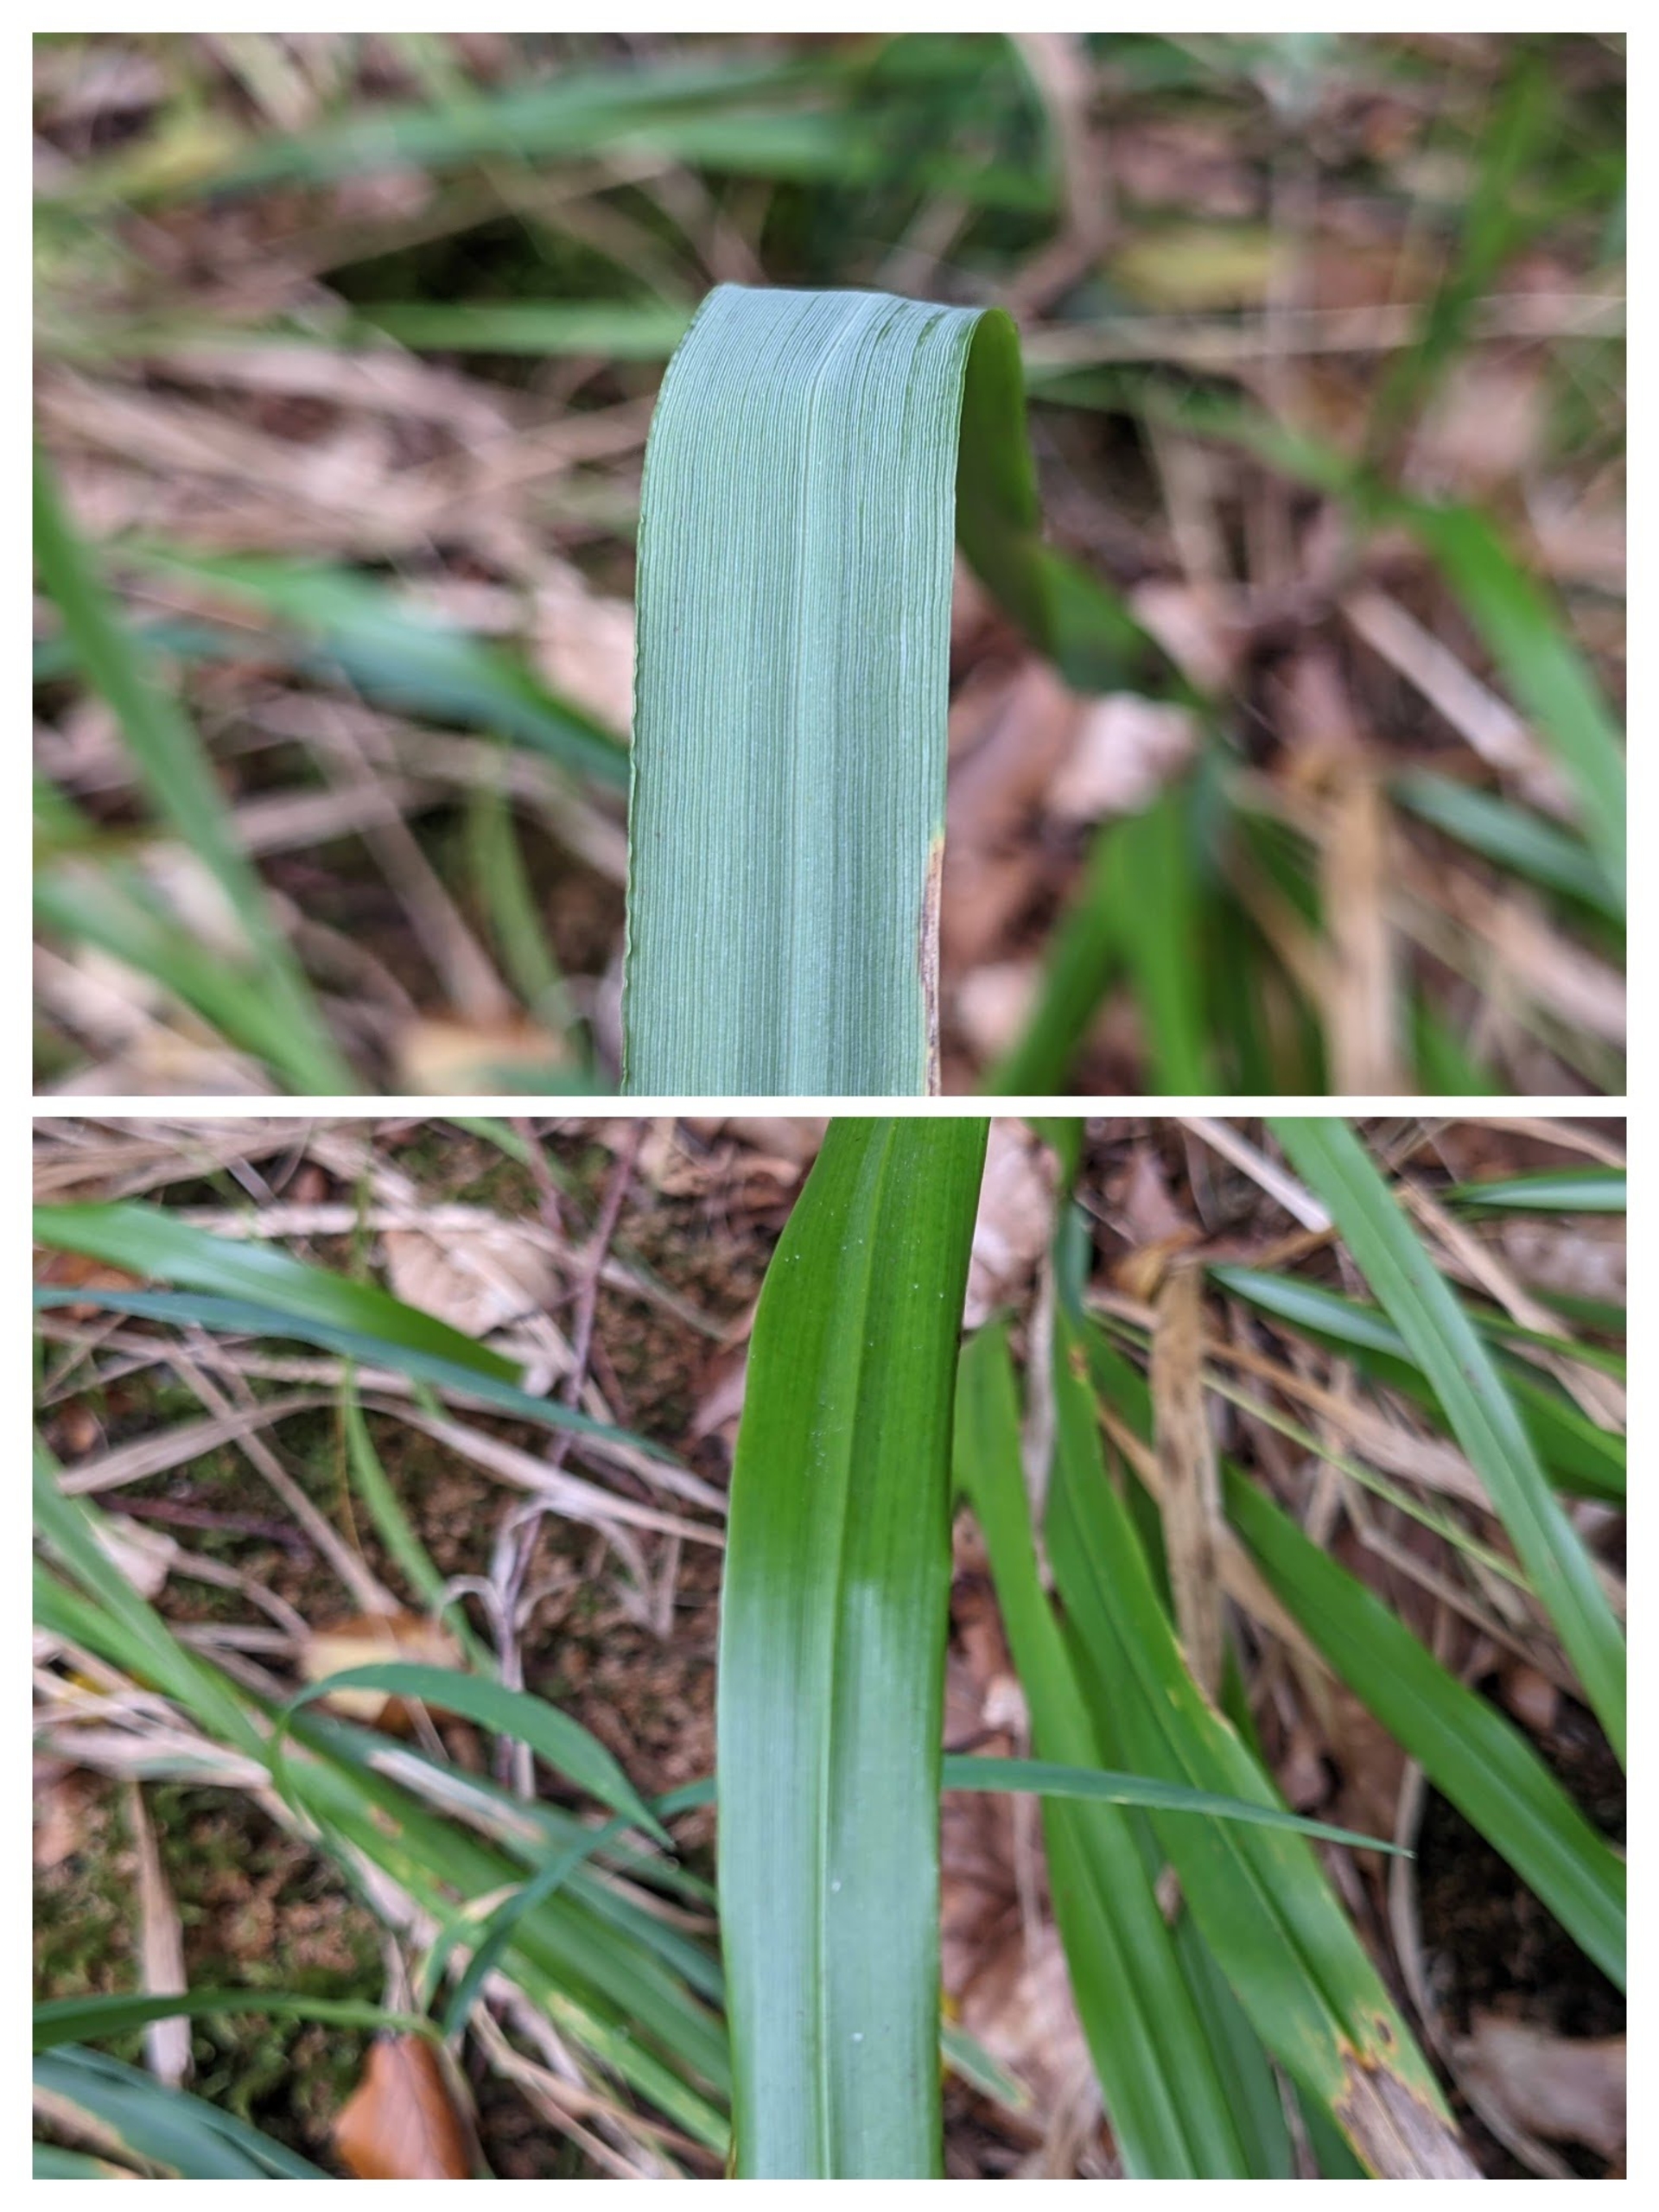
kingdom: Plantae
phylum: Tracheophyta
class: Liliopsida
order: Poales
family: Poaceae
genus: Festuca
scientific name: Festuca altissima
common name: Skov-svingel
